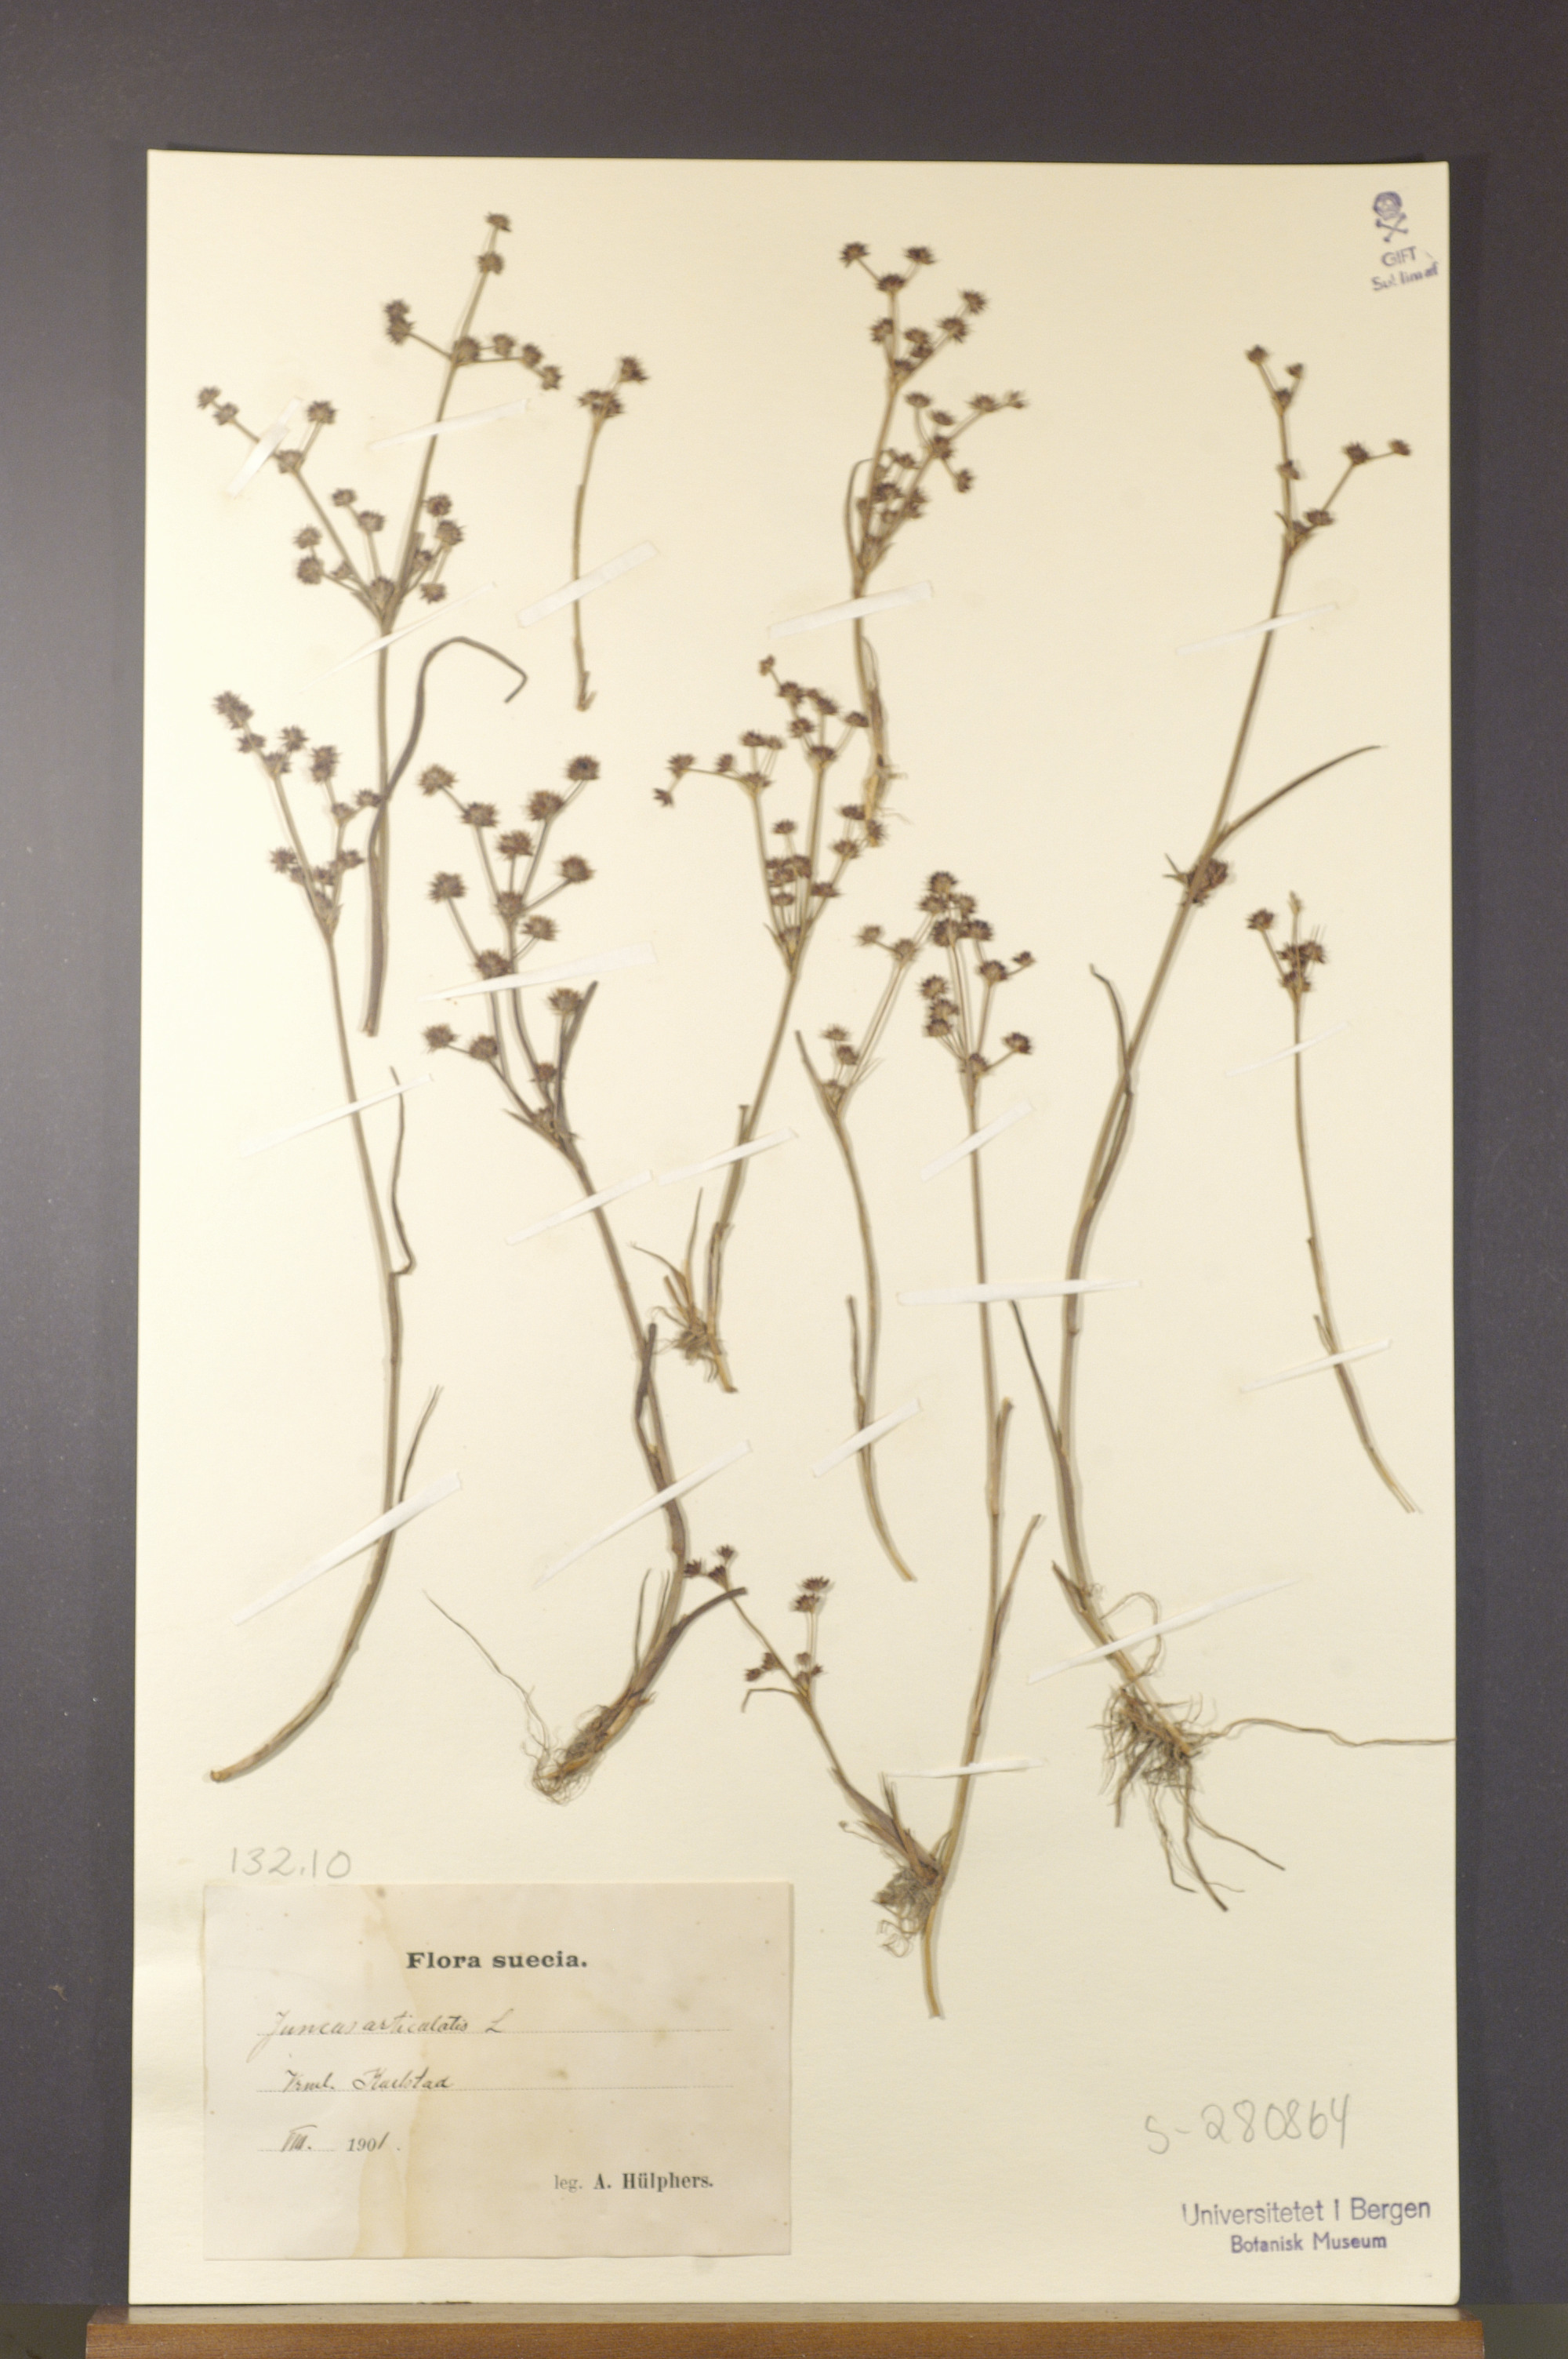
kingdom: Plantae
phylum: Tracheophyta
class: Liliopsida
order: Poales
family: Juncaceae
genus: Juncus
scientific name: Juncus articulatus
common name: Jointed rush
